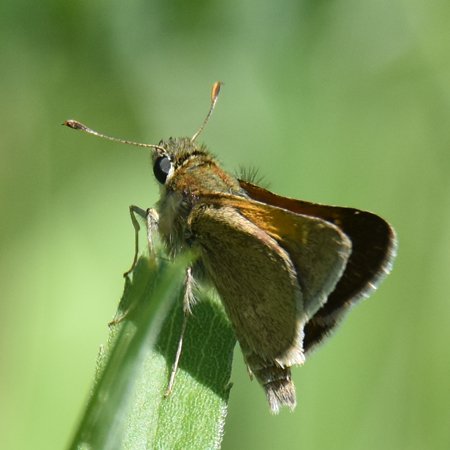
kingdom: Animalia
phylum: Arthropoda
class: Insecta
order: Lepidoptera
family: Hesperiidae
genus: Polites
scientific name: Polites themistocles
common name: Tawny-edged Skipper
